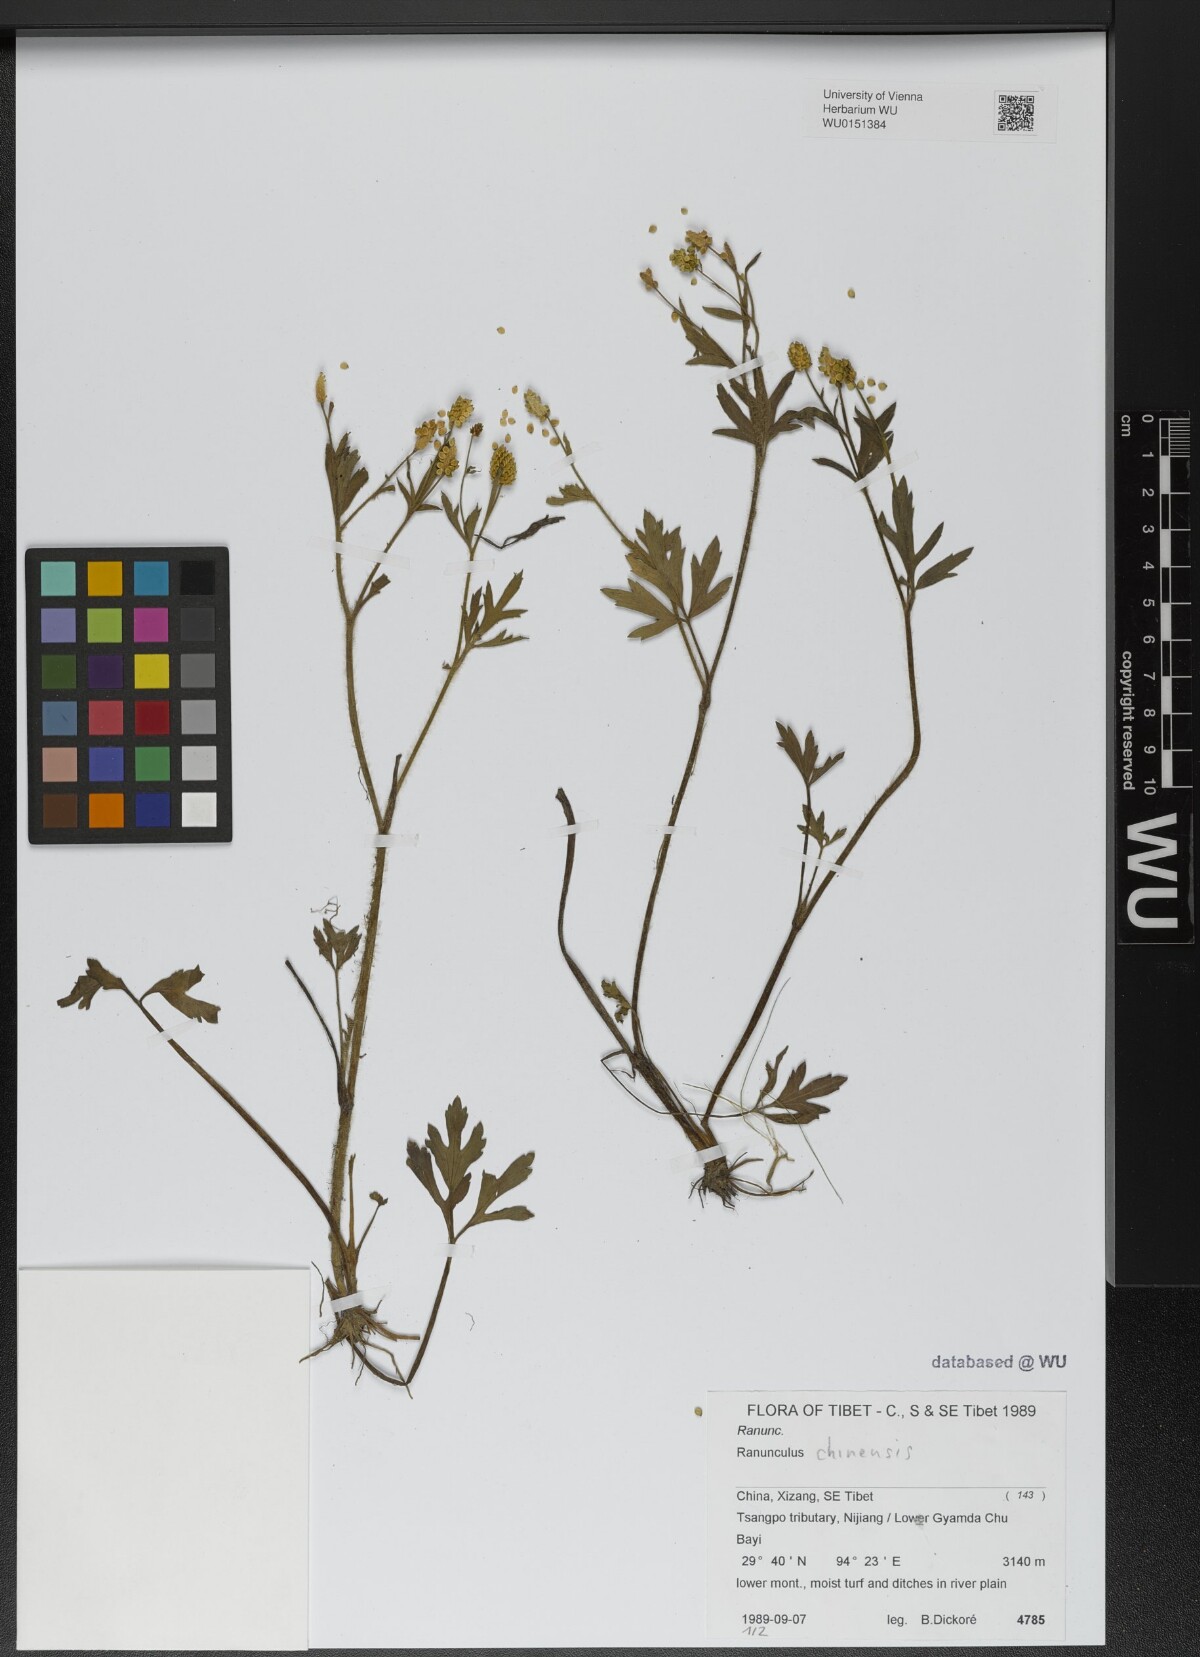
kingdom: Plantae
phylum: Tracheophyta
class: Magnoliopsida
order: Ranunculales
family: Ranunculaceae
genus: Ranunculus
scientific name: Ranunculus chinensis
